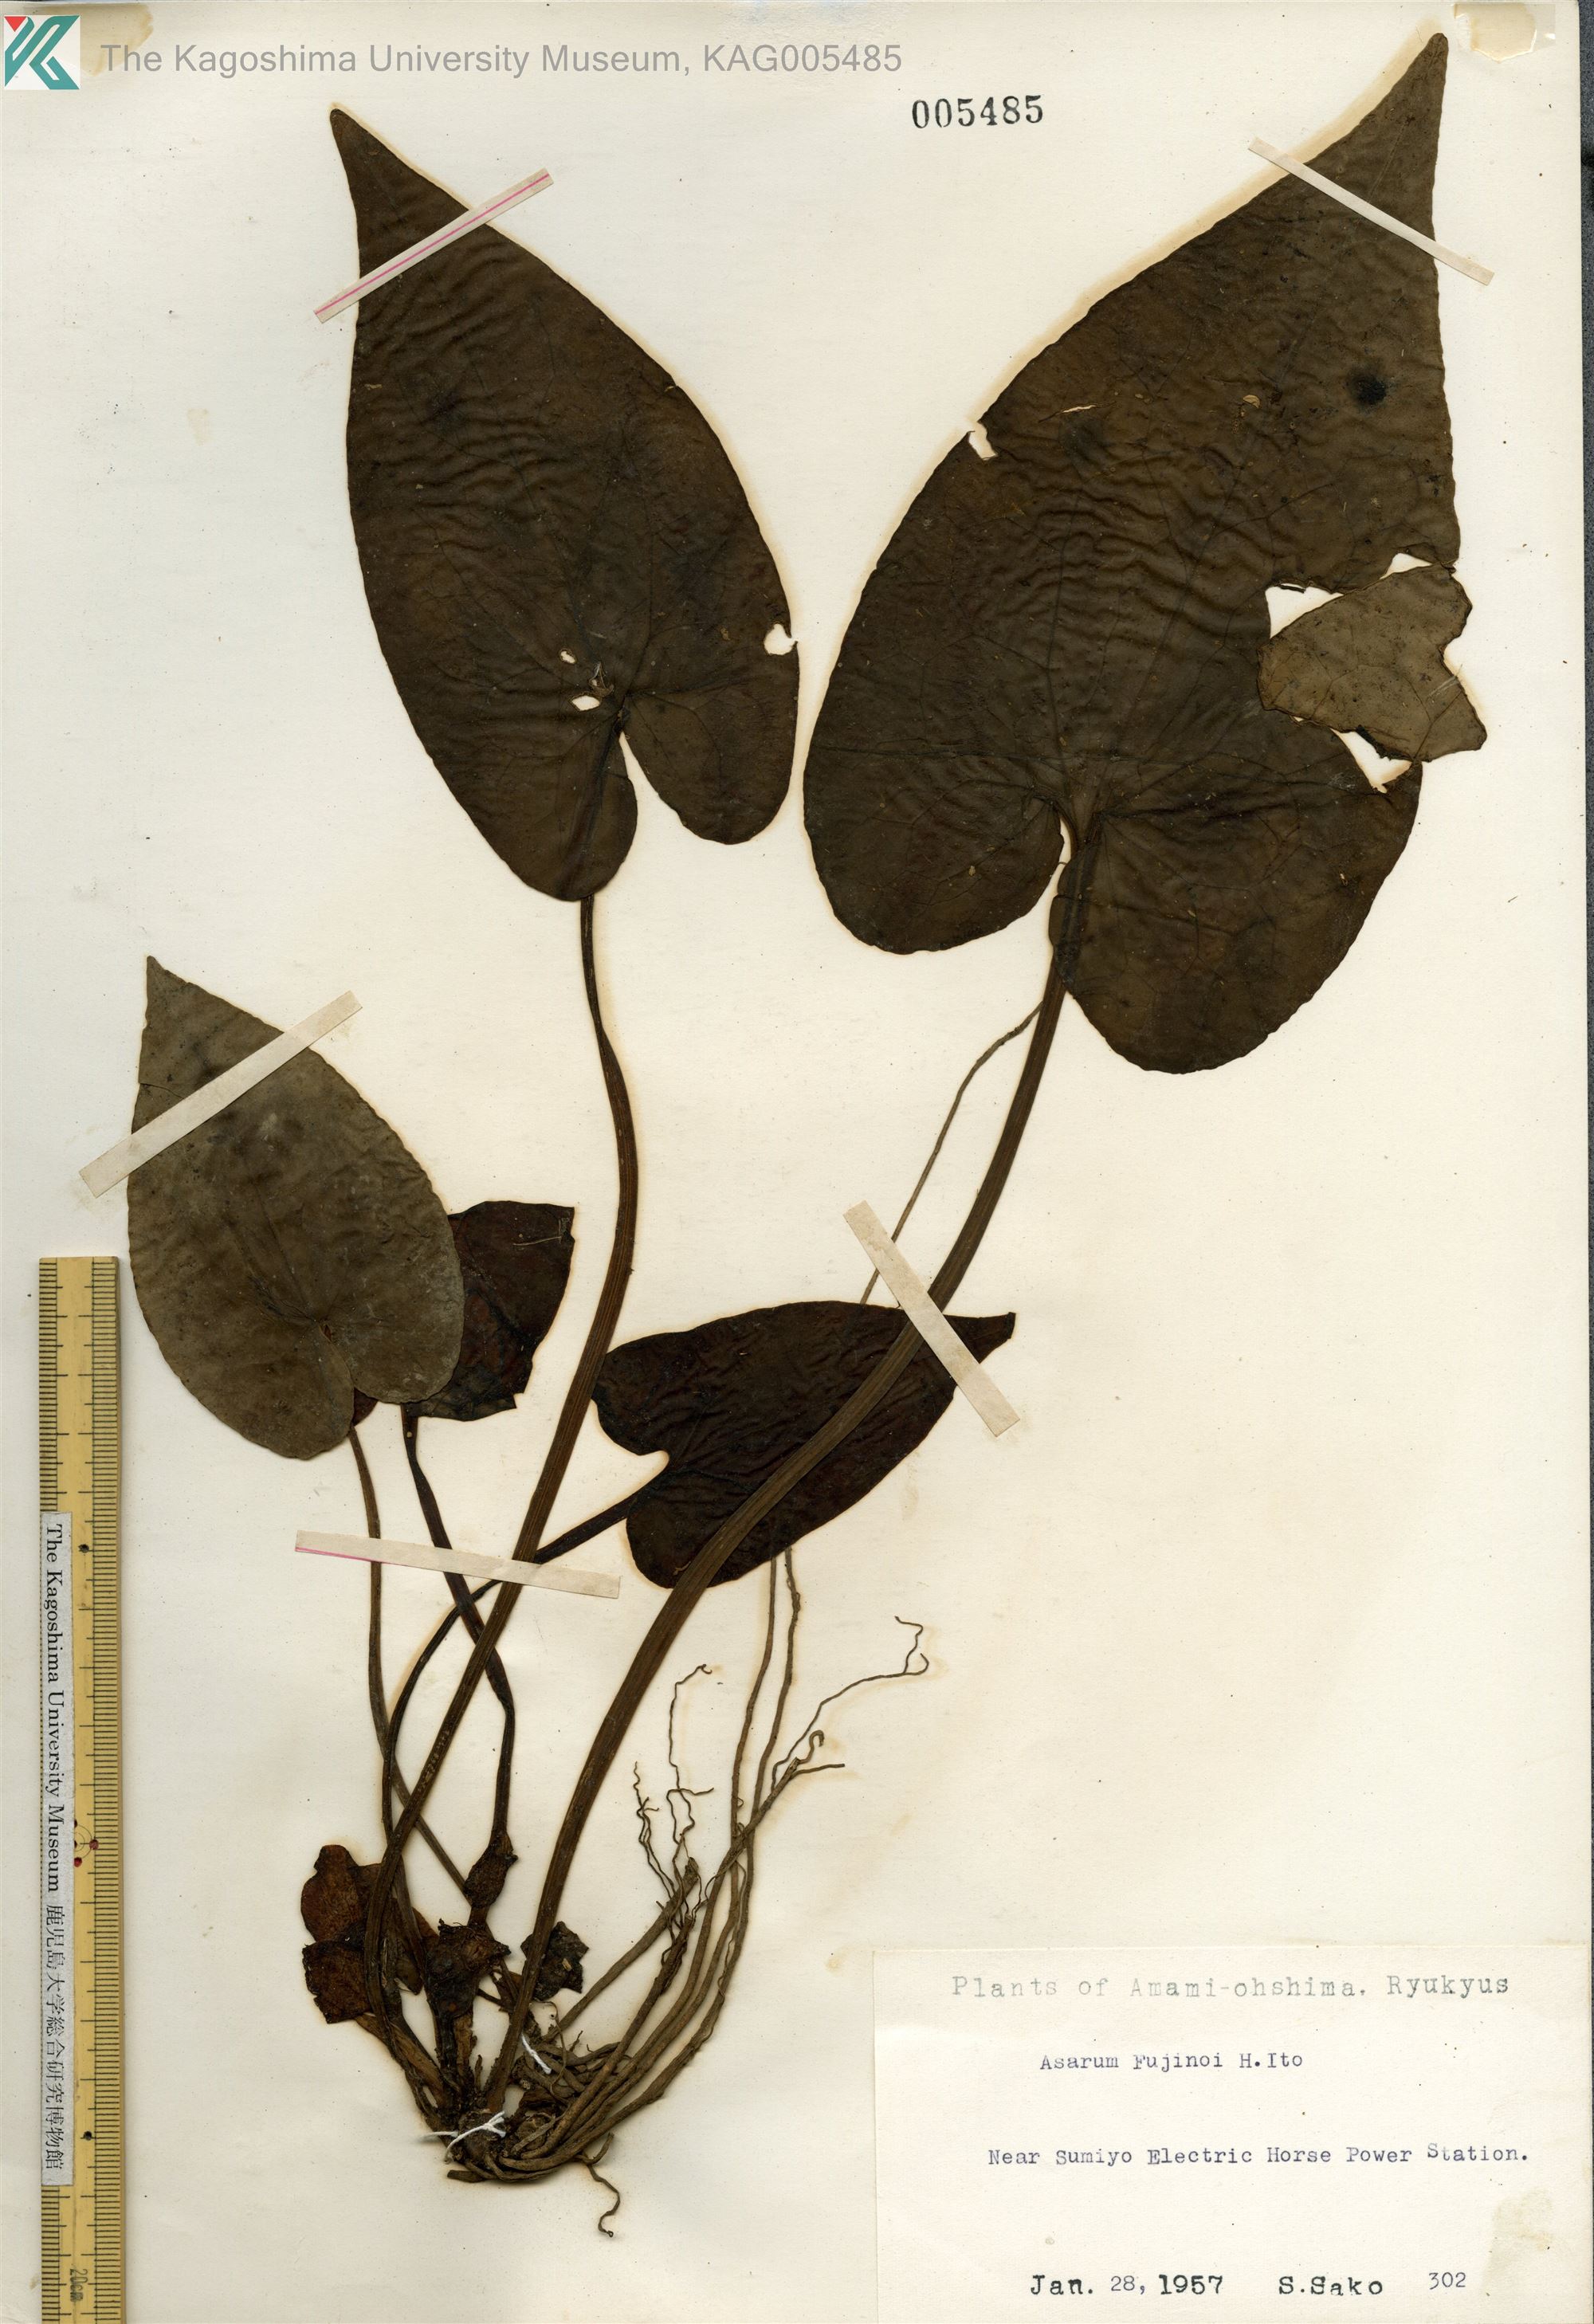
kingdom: Plantae
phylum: Tracheophyta
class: Magnoliopsida
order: Piperales
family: Aristolochiaceae
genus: Asarum
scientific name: Asarum
